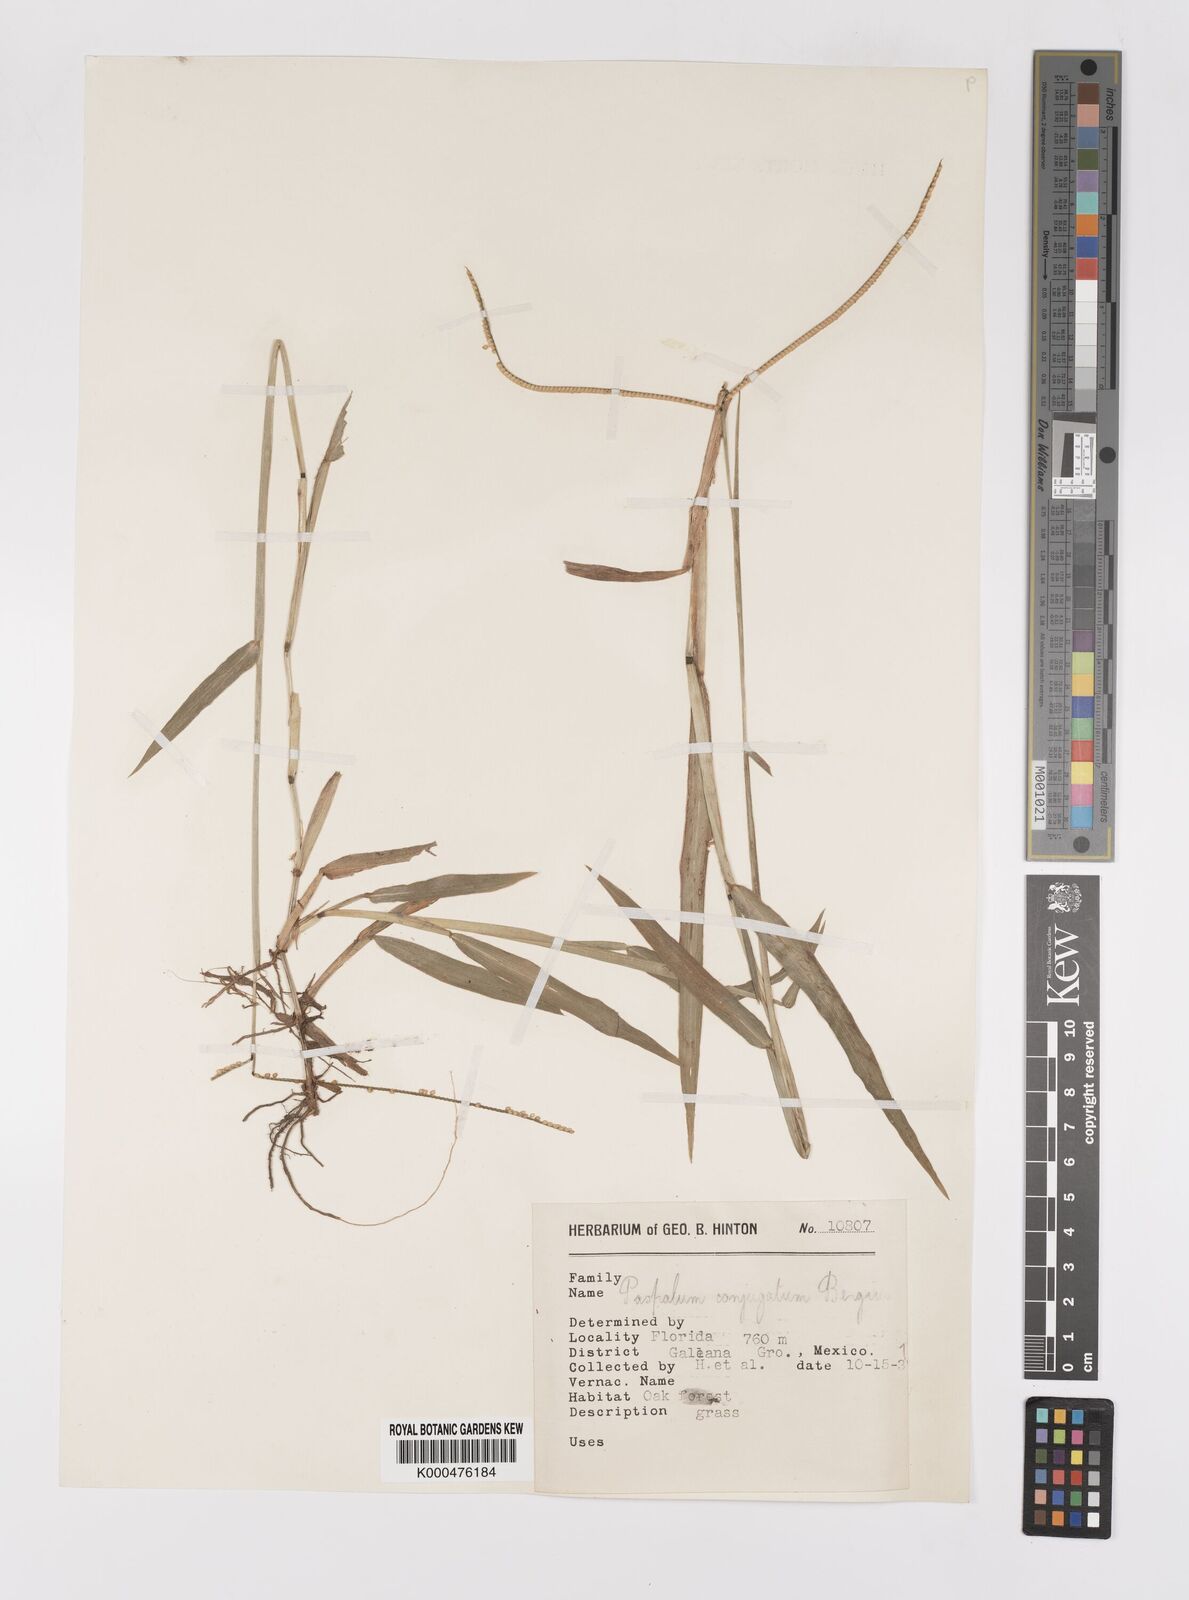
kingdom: Plantae
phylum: Tracheophyta
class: Liliopsida
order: Poales
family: Poaceae
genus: Paspalum
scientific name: Paspalum conjugatum
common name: Hilograss
